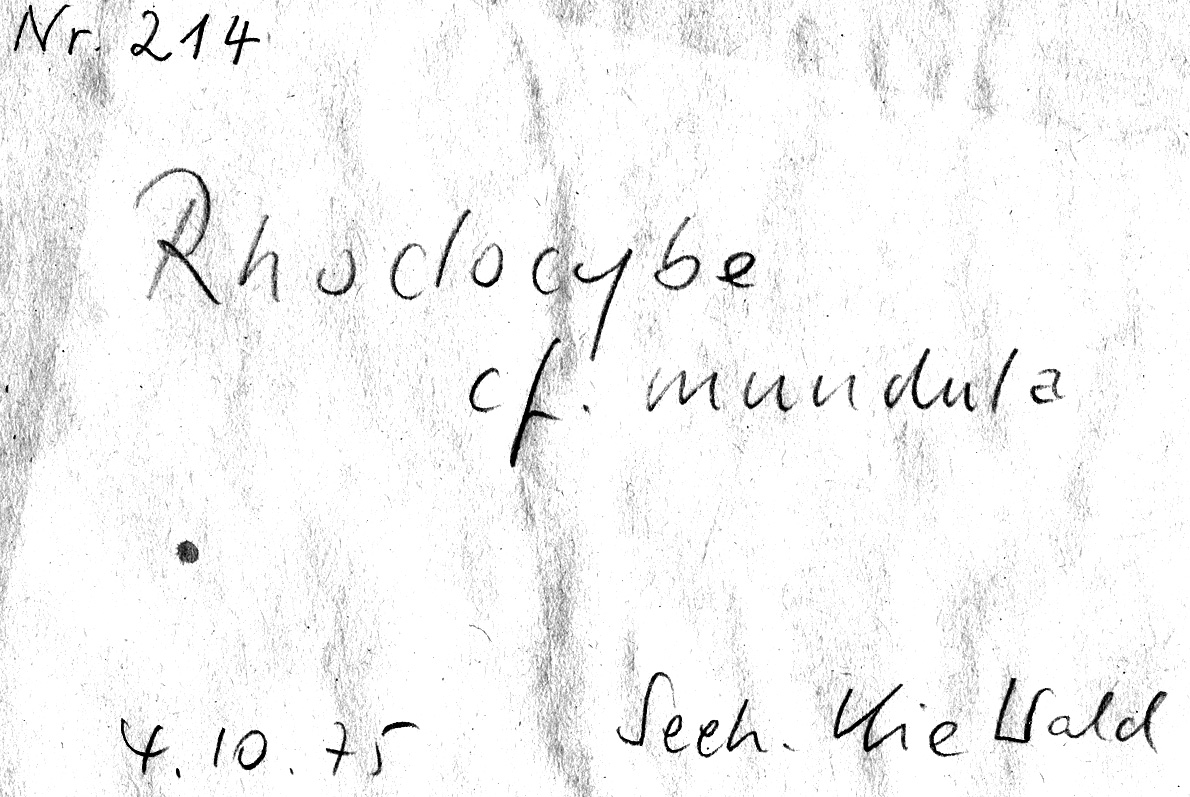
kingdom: Fungi
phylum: Basidiomycota
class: Agaricomycetes
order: Agaricales
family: Entolomataceae
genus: Clitocella
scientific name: Clitocella mundula
